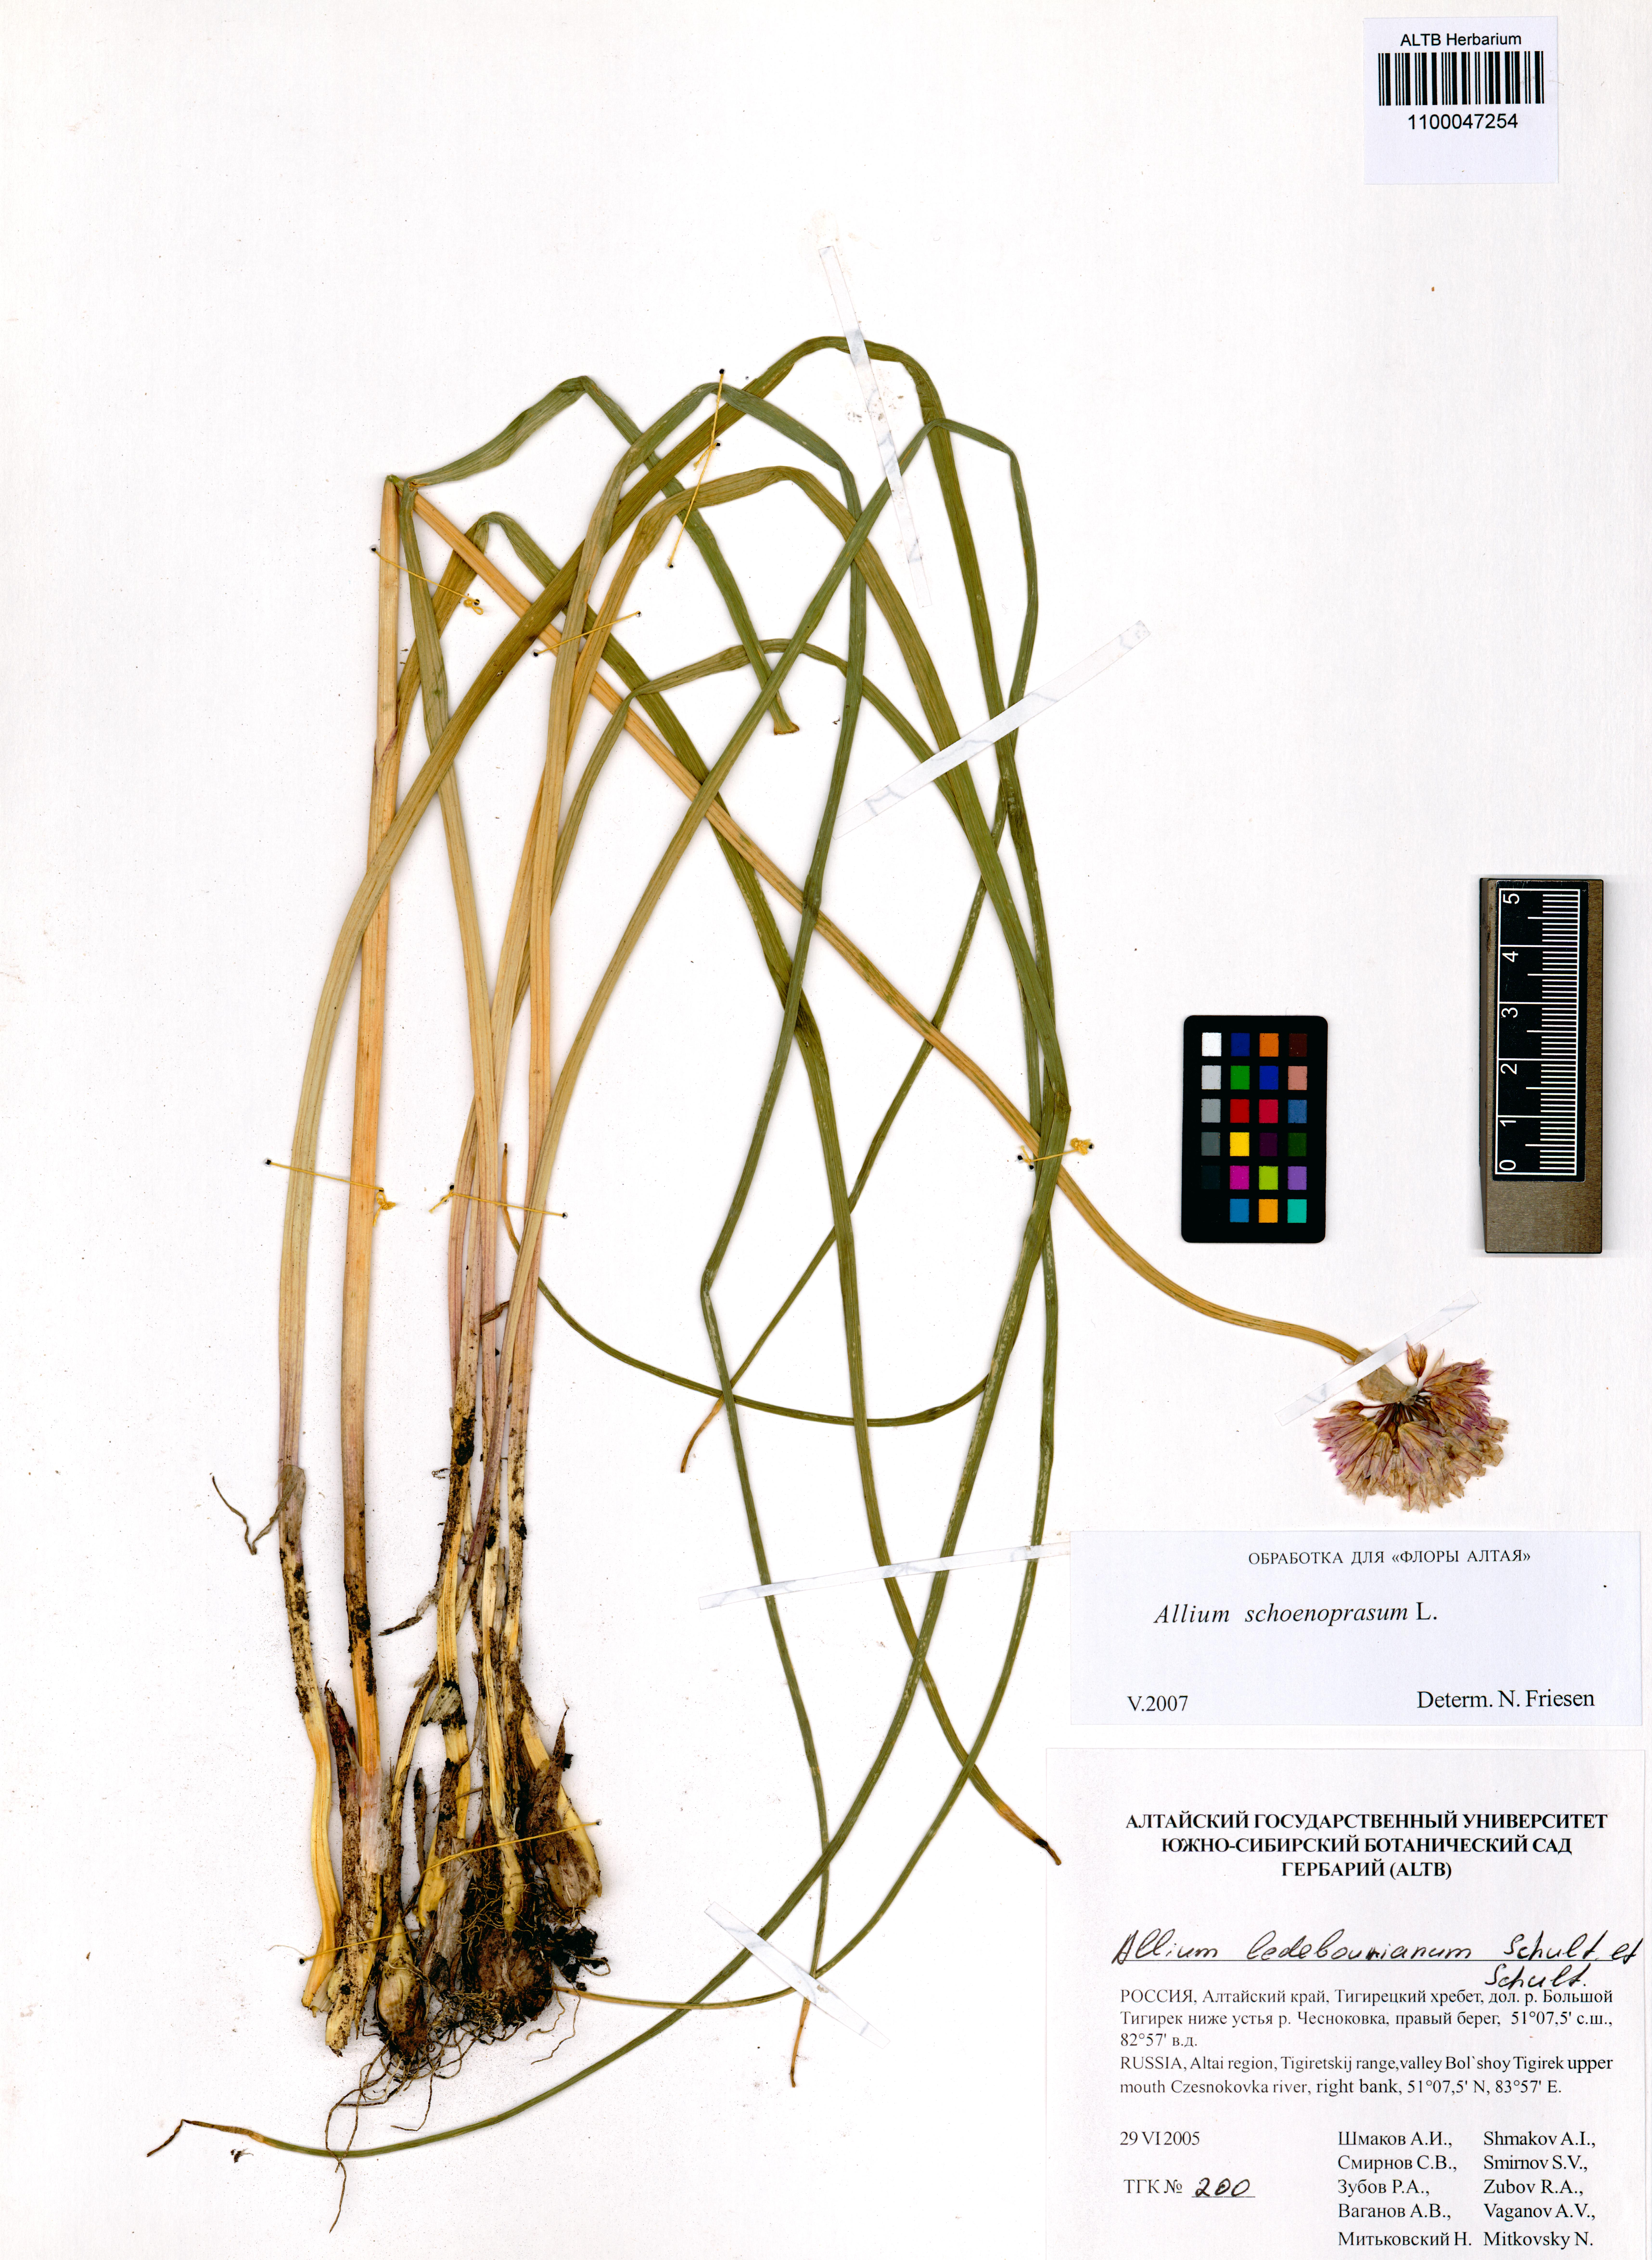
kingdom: Plantae
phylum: Tracheophyta
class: Liliopsida
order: Asparagales
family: Amaryllidaceae
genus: Allium
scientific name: Allium schoenoprasum
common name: Chives
